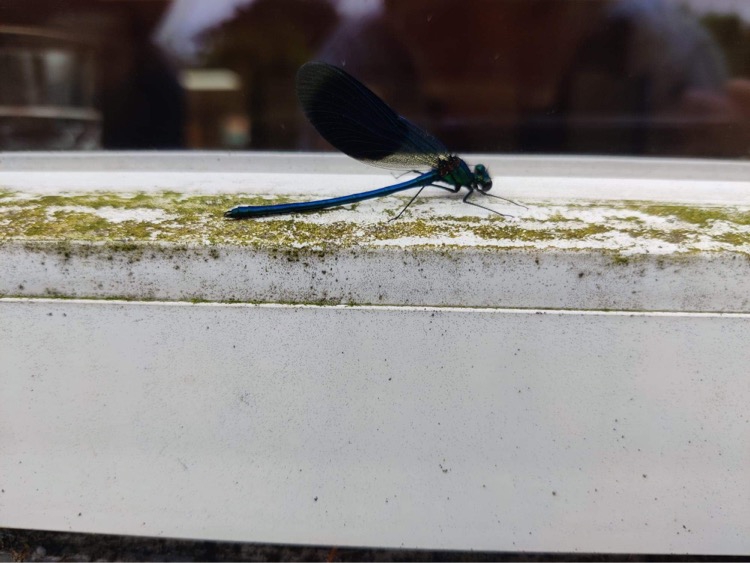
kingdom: Animalia
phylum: Arthropoda
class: Insecta
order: Odonata
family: Calopterygidae
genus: Calopteryx
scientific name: Calopteryx splendens
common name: Blåbåndet pragtvandnymfe
